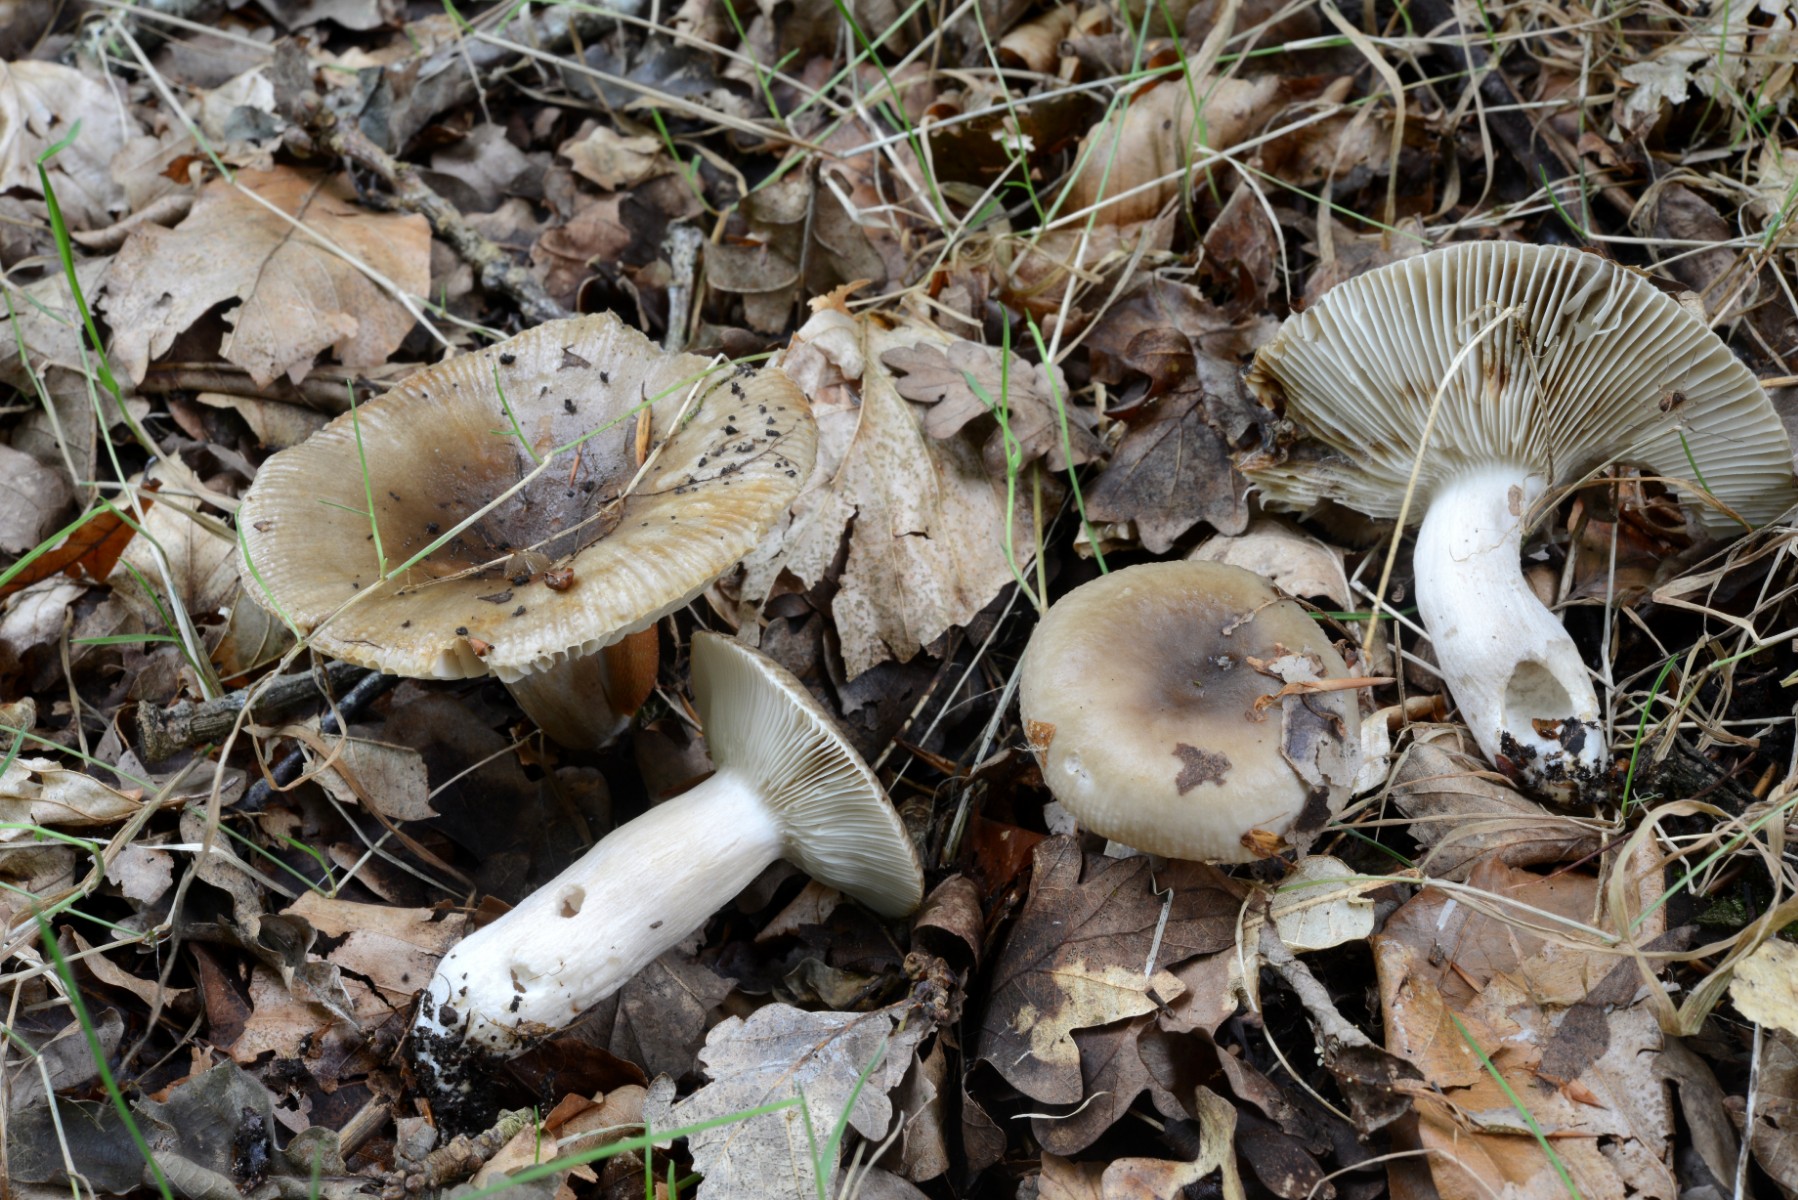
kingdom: Fungi
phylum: Basidiomycota
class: Agaricomycetes
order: Russulales
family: Russulaceae
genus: Russula
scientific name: Russula amoenolens
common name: skarp kam-skørhat
